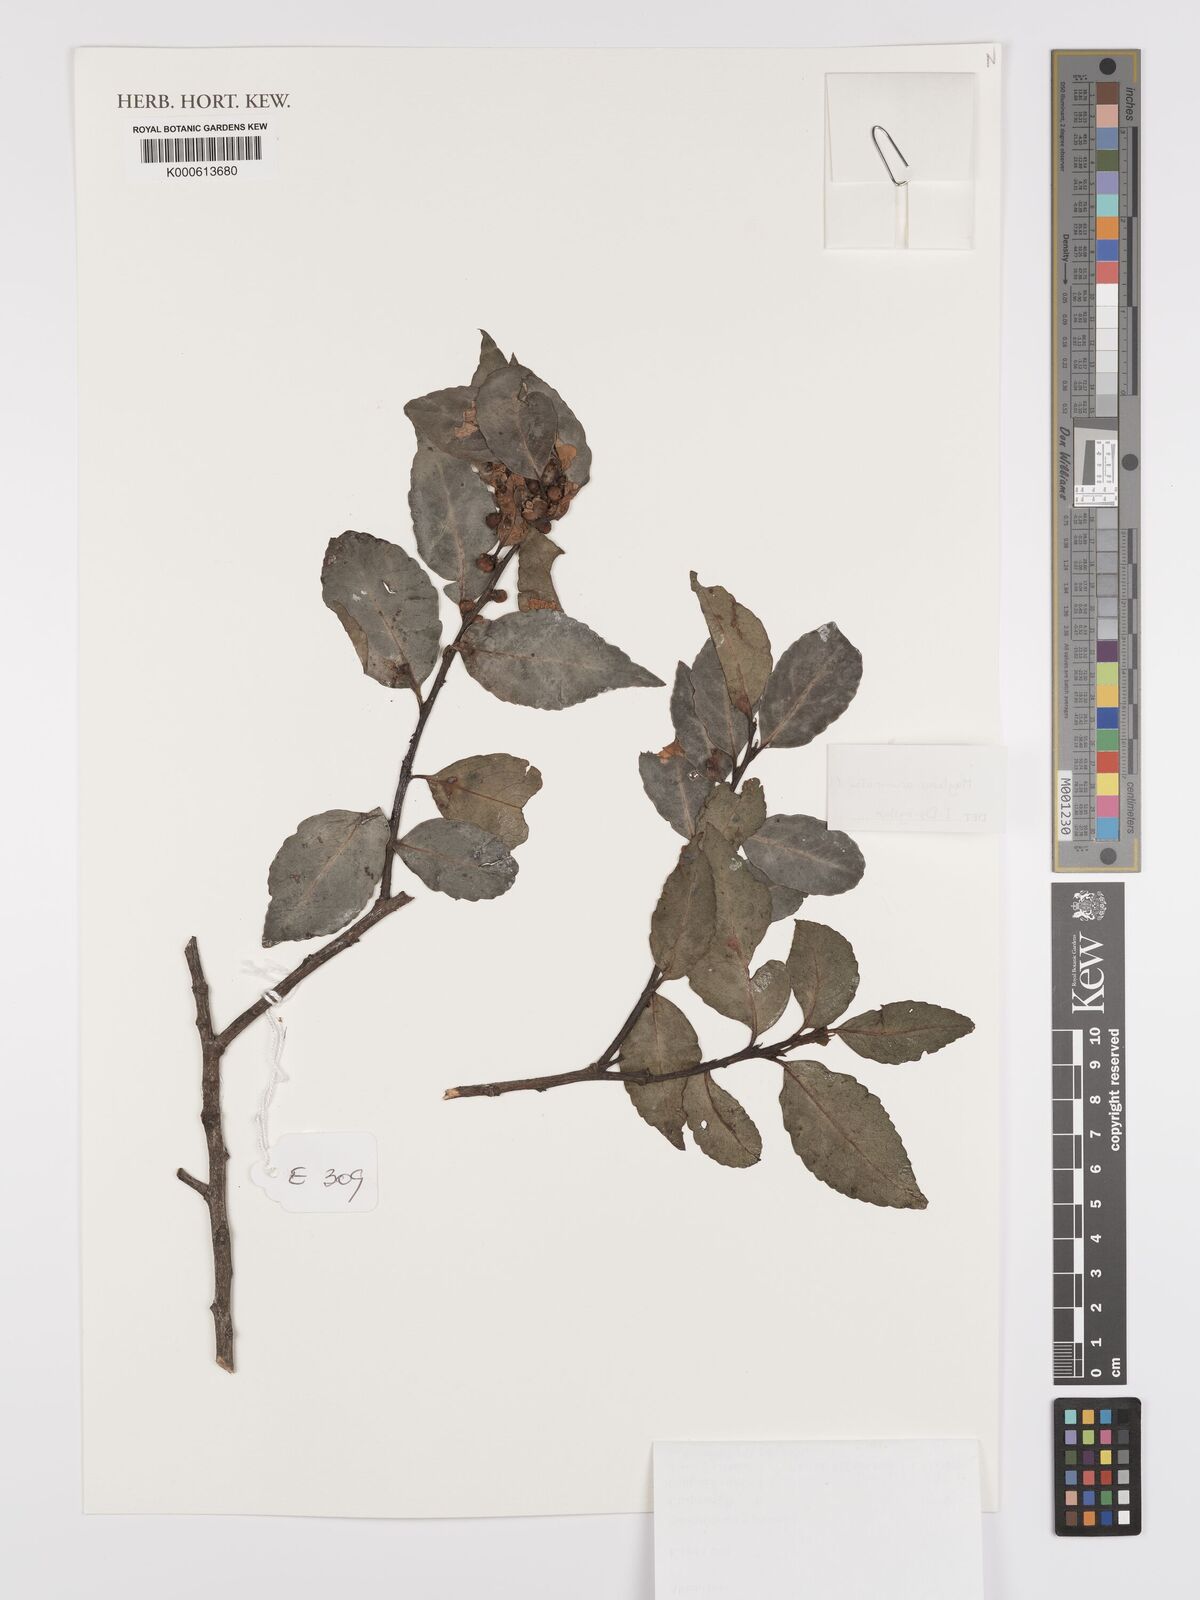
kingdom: Plantae
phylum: Tracheophyta
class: Magnoliopsida
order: Celastrales
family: Celastraceae
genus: Gymnosporia
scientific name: Gymnosporia acuminata
